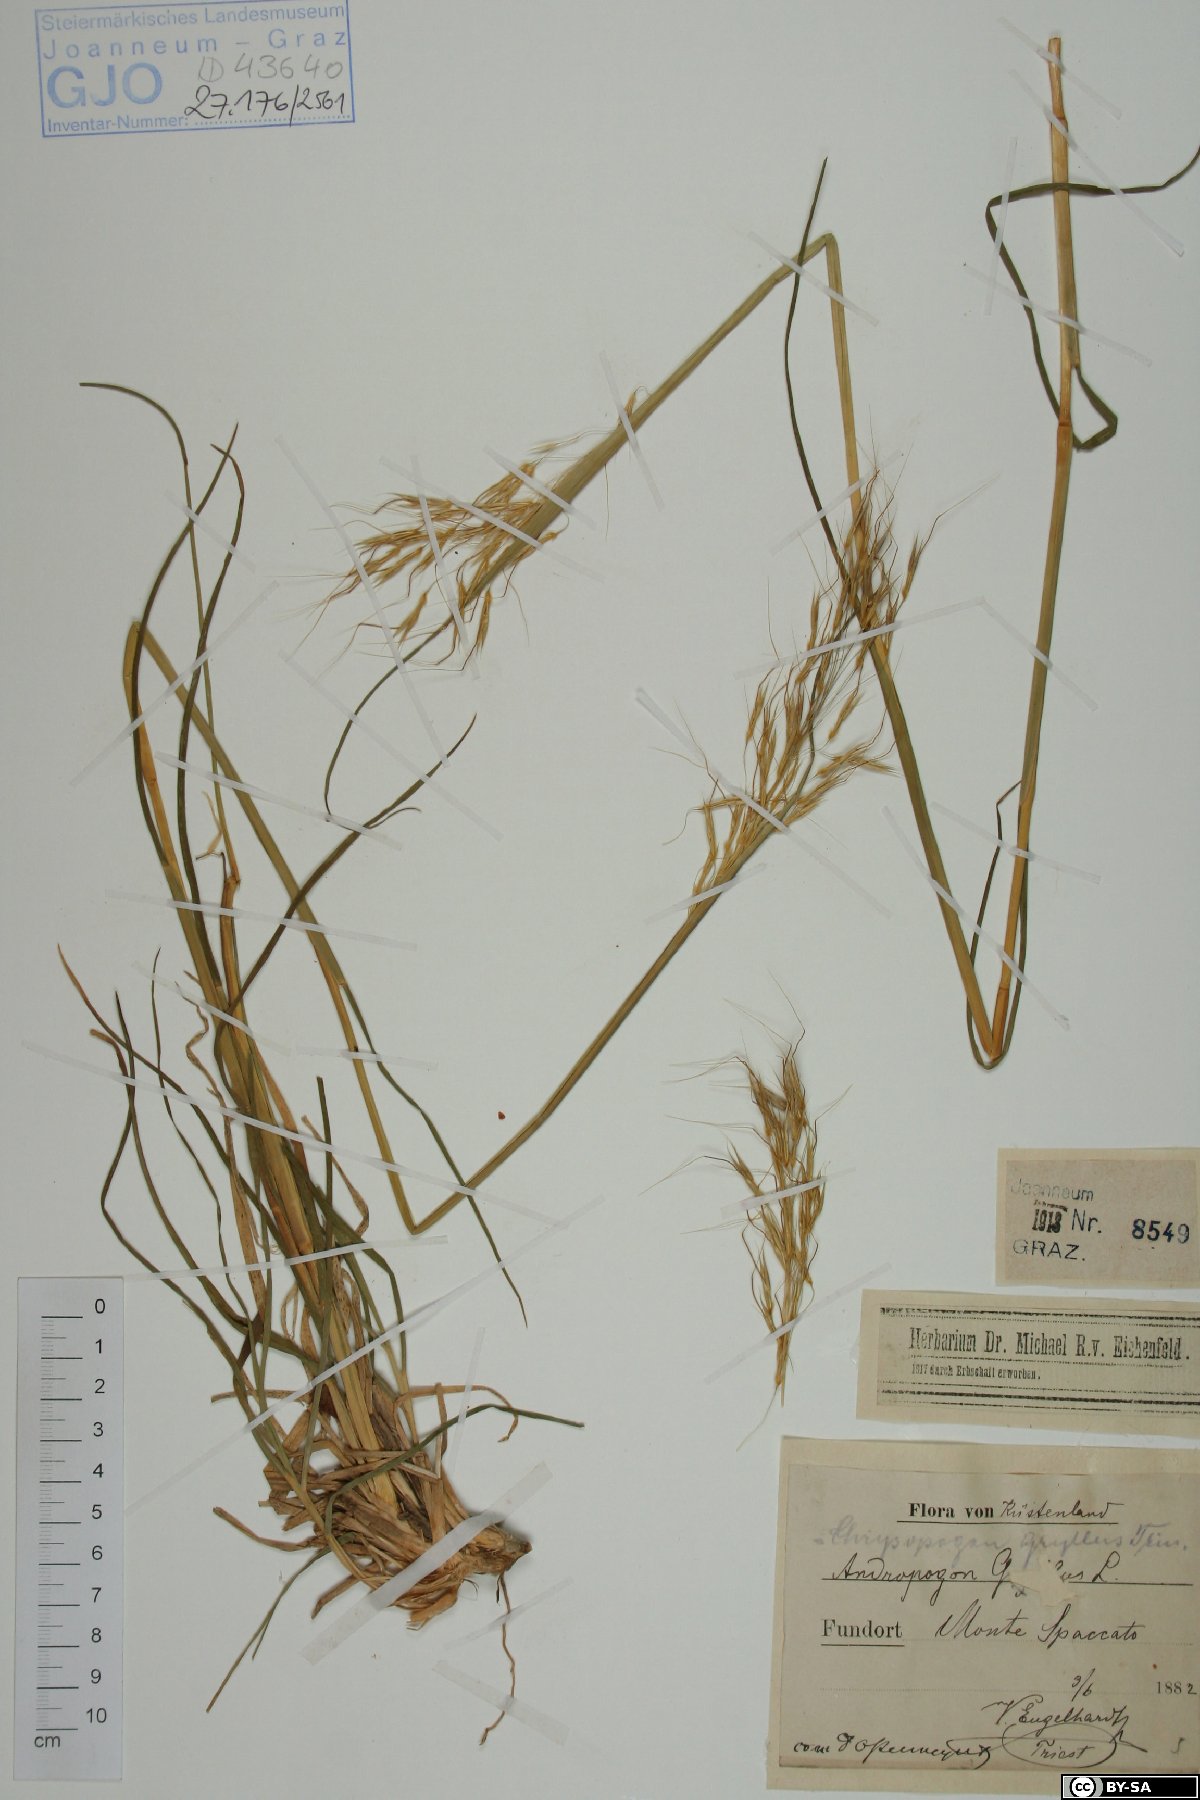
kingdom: Plantae
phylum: Tracheophyta
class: Liliopsida
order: Poales
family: Poaceae
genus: Chrysopogon
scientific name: Chrysopogon gryllus
